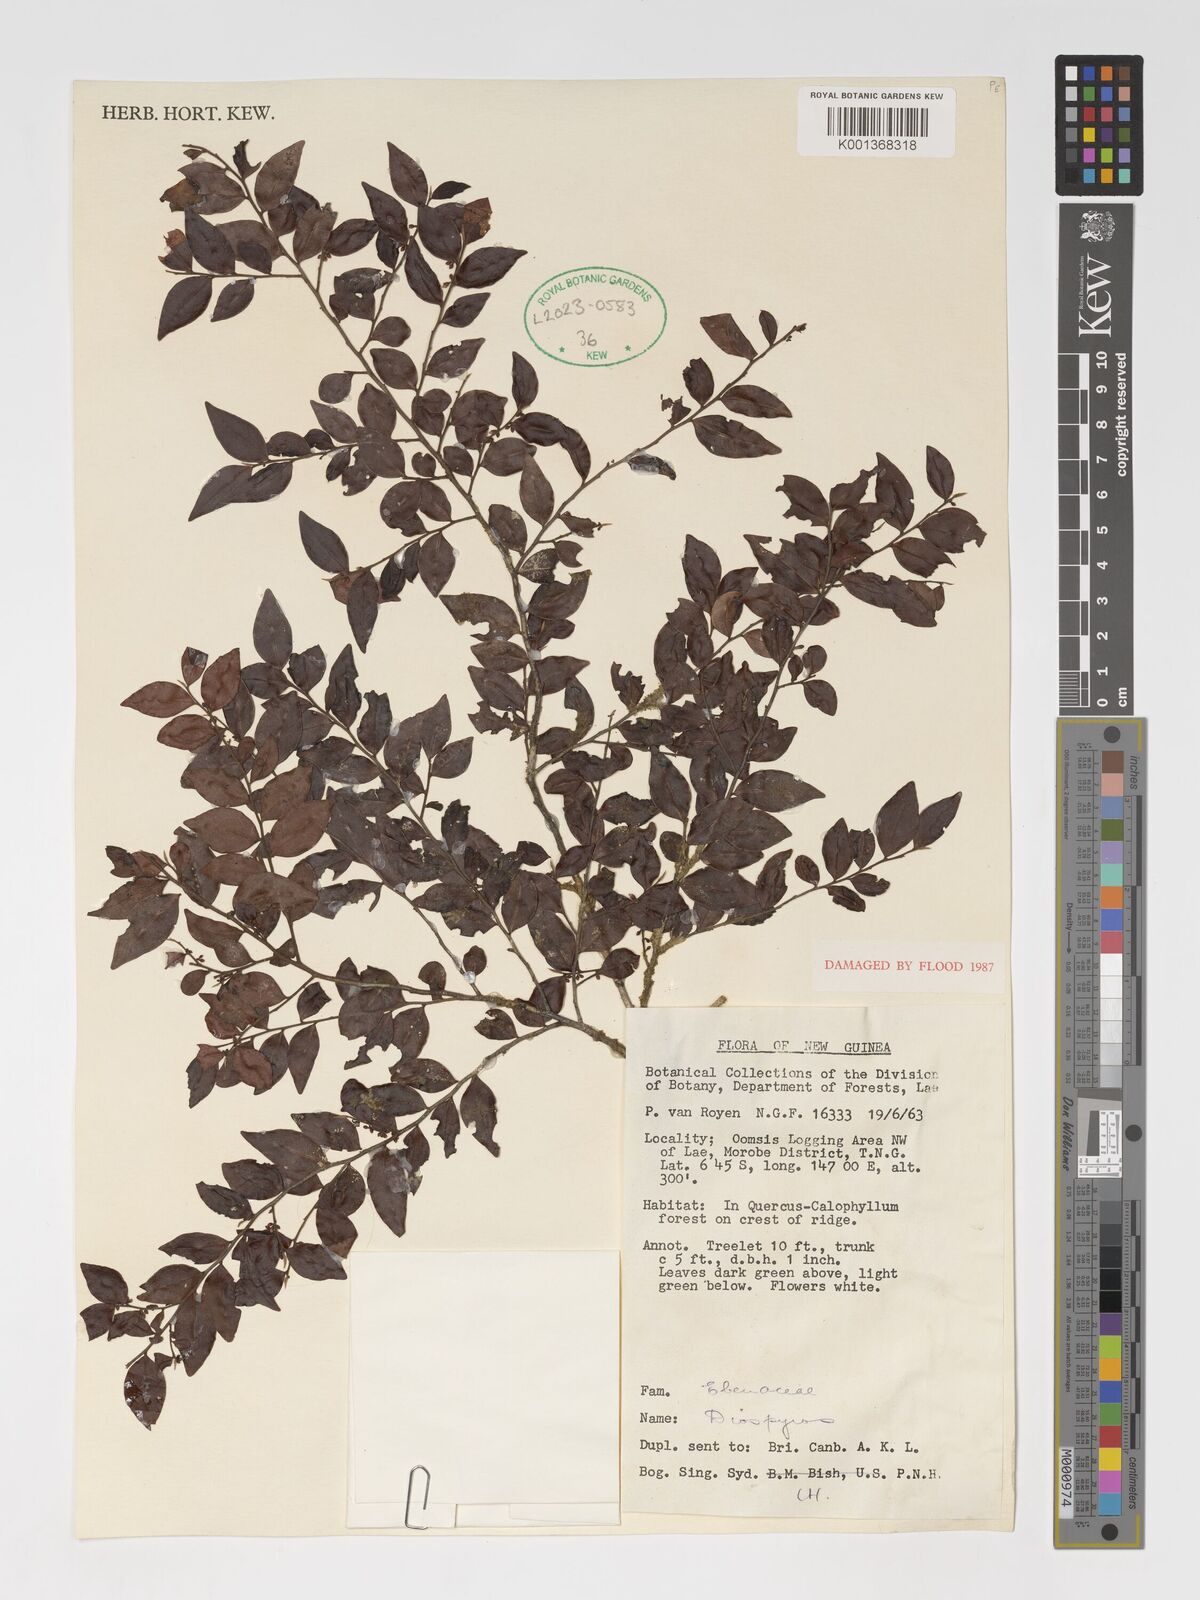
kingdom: Plantae
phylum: Tracheophyta
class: Magnoliopsida
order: Ericales
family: Ebenaceae
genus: Diospyros
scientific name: Diospyros
